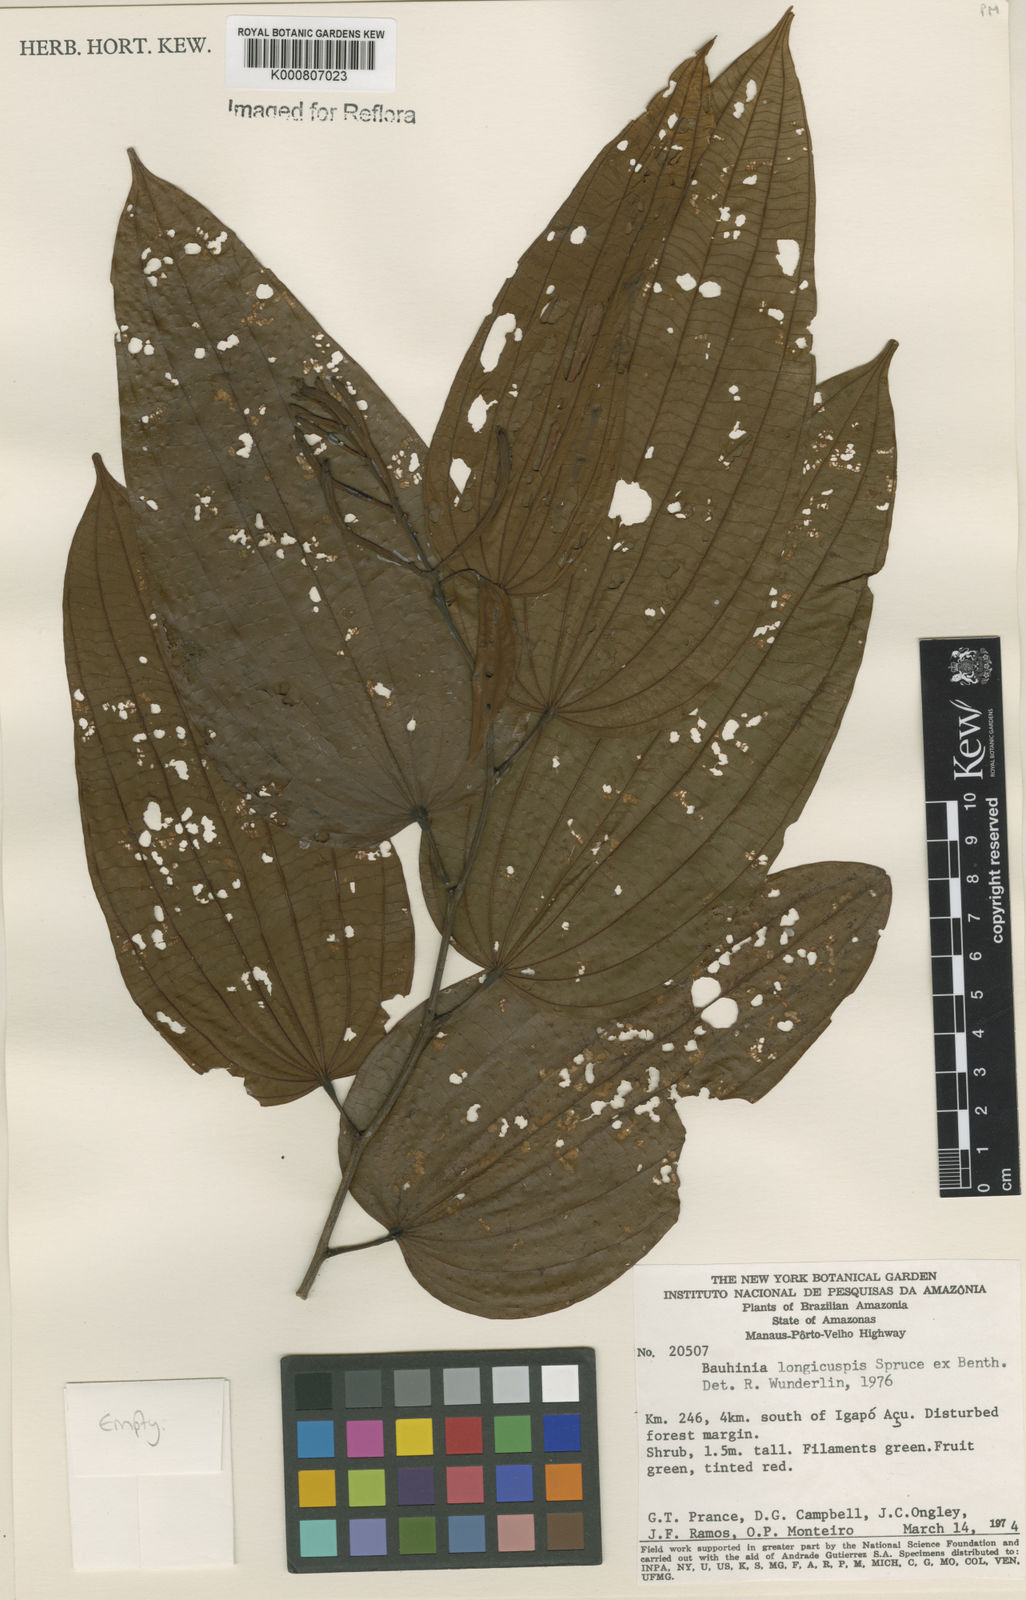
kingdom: Plantae
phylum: Tracheophyta
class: Magnoliopsida
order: Fabales
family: Fabaceae
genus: Bauhinia
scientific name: Bauhinia longicuspis
